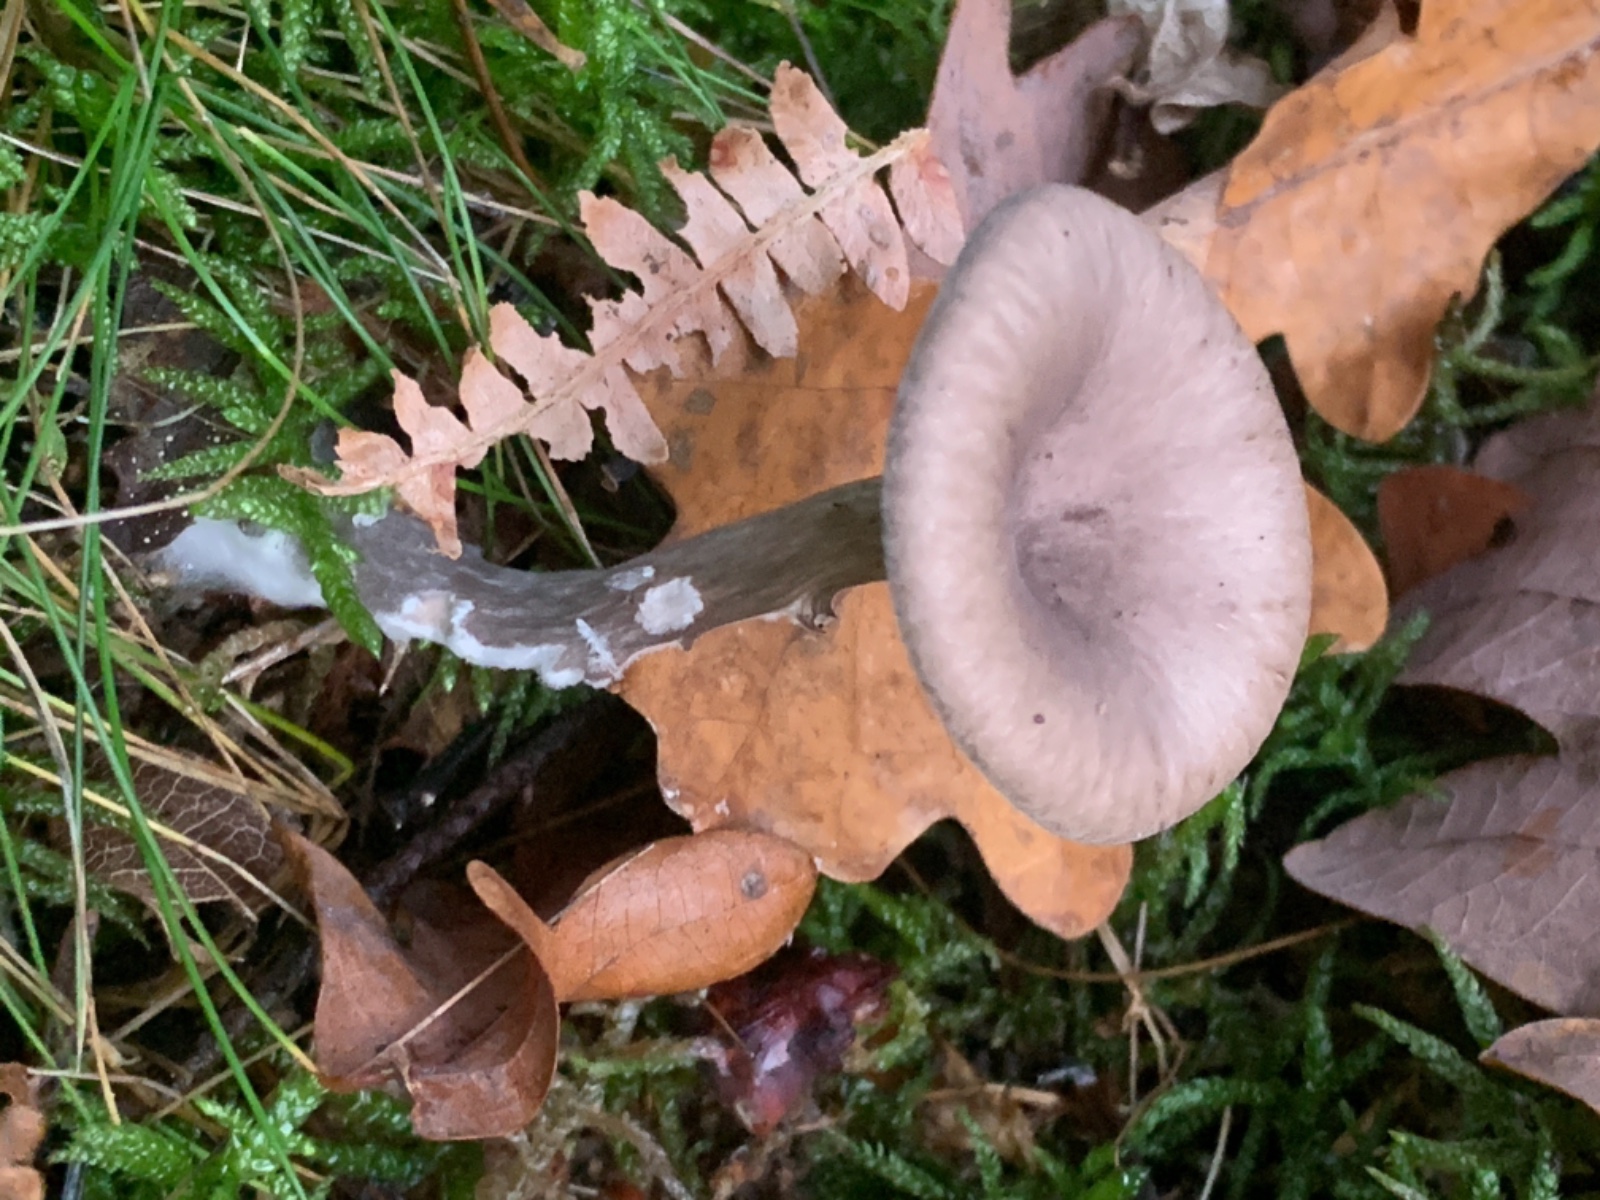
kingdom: Fungi
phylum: Basidiomycota
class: Agaricomycetes
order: Agaricales
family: Pseudoclitocybaceae
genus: Pseudoclitocybe
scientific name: Pseudoclitocybe cyathiformis
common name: almindelig bægertragthat
